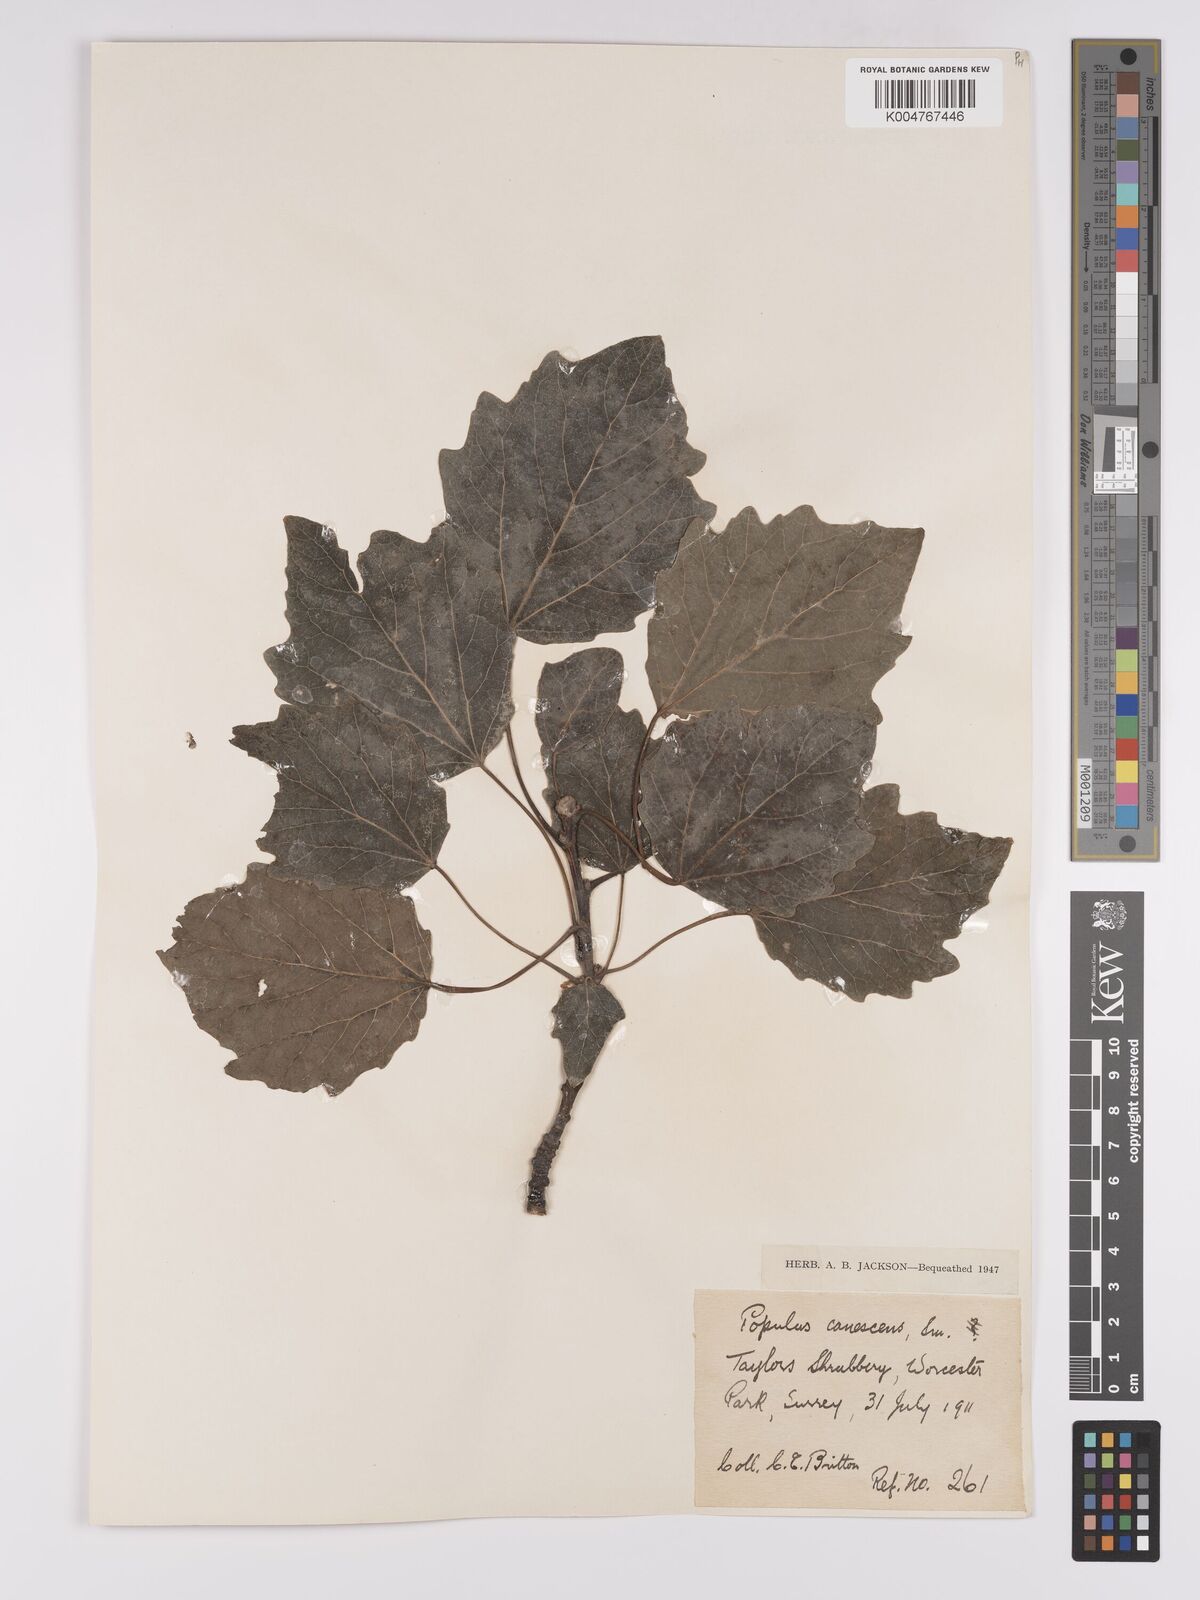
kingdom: Plantae
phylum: Tracheophyta
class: Magnoliopsida
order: Malpighiales
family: Salicaceae
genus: Populus
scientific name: Populus canescens
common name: Gray poplar
